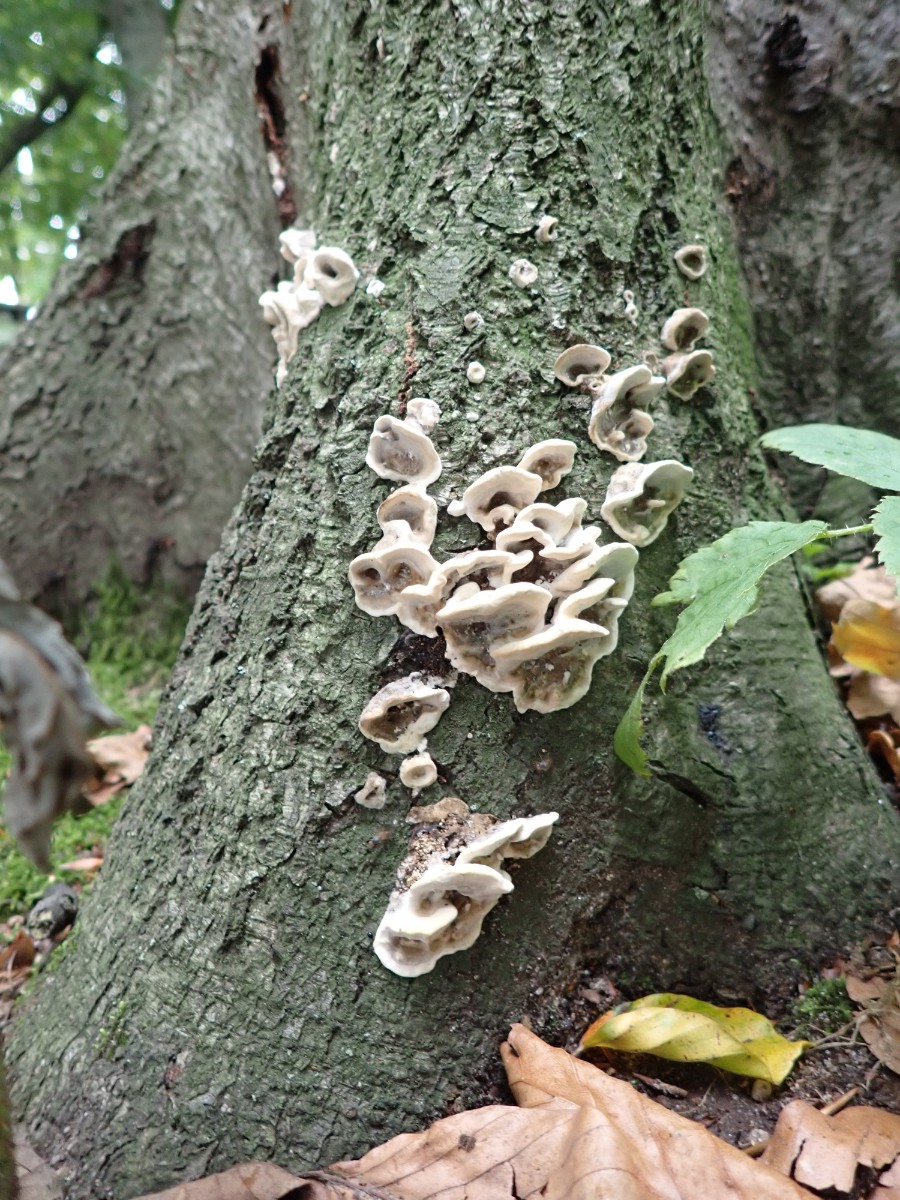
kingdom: Fungi
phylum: Basidiomycota
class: Agaricomycetes
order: Polyporales
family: Phanerochaetaceae
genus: Bjerkandera
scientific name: Bjerkandera adusta
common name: sveden sodporesvamp
